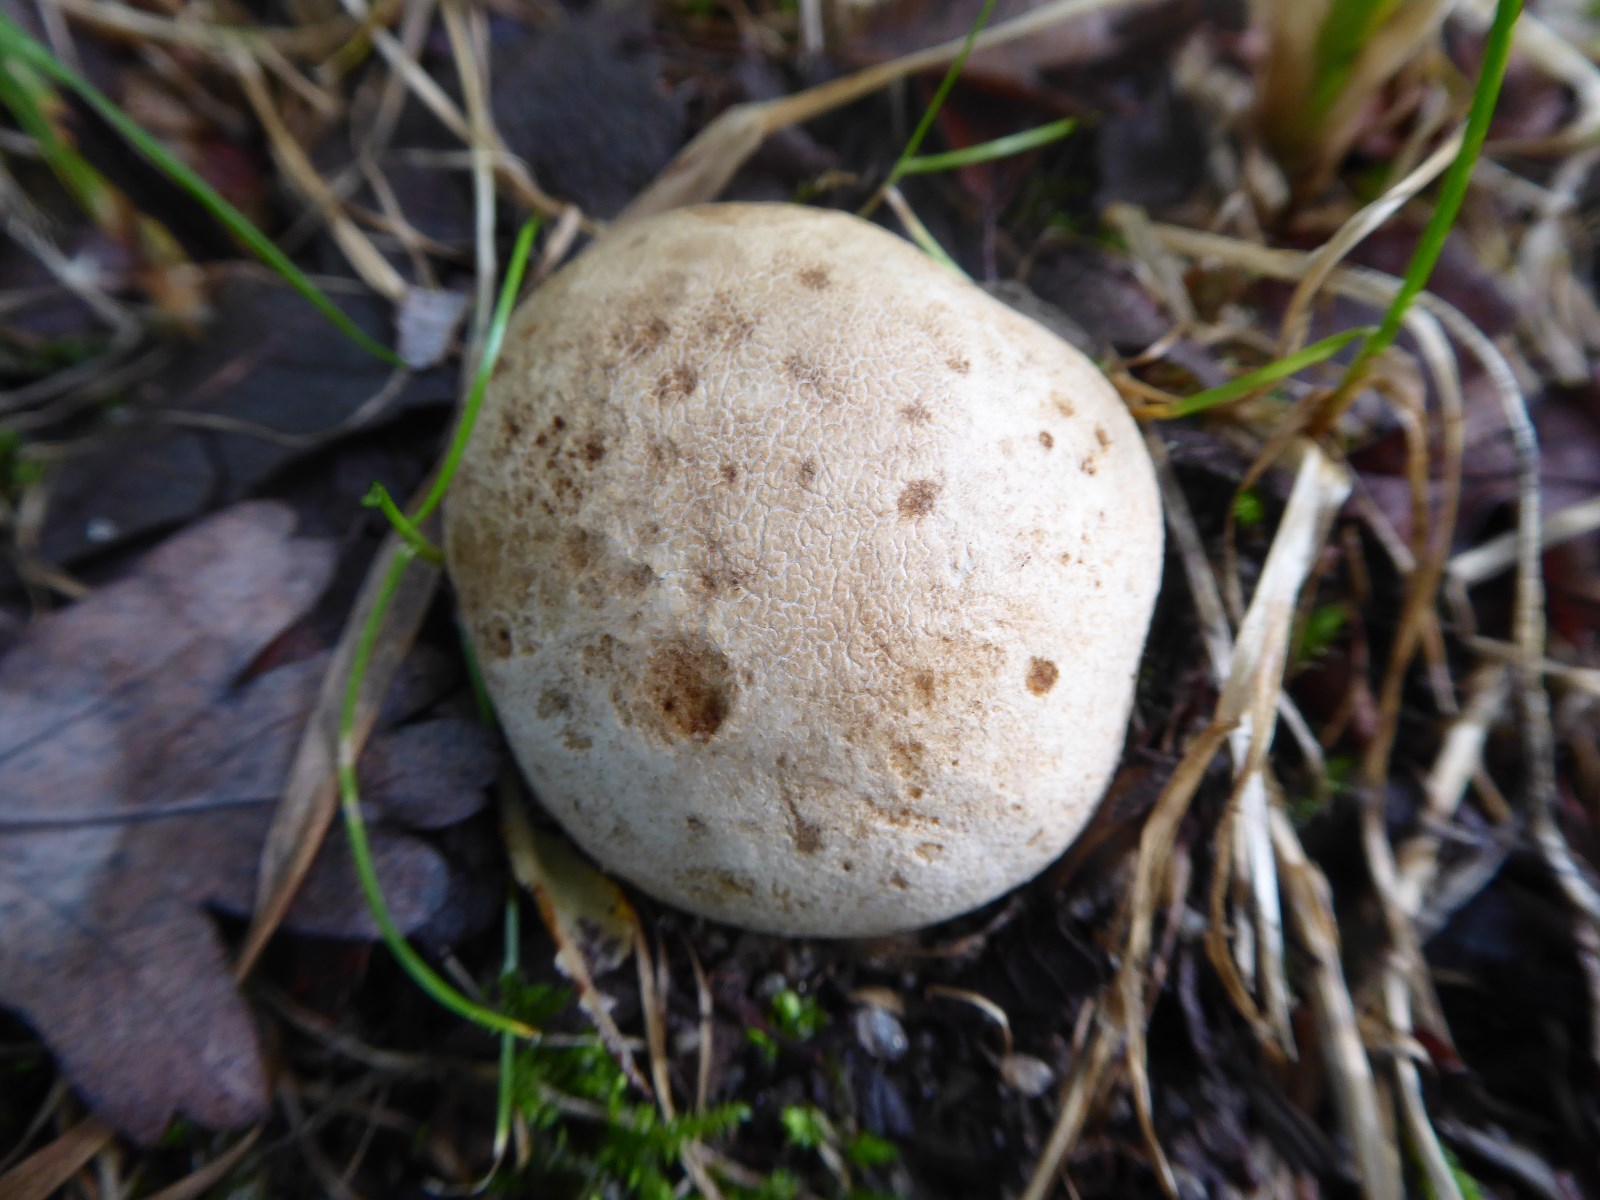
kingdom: Fungi
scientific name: Fungi
